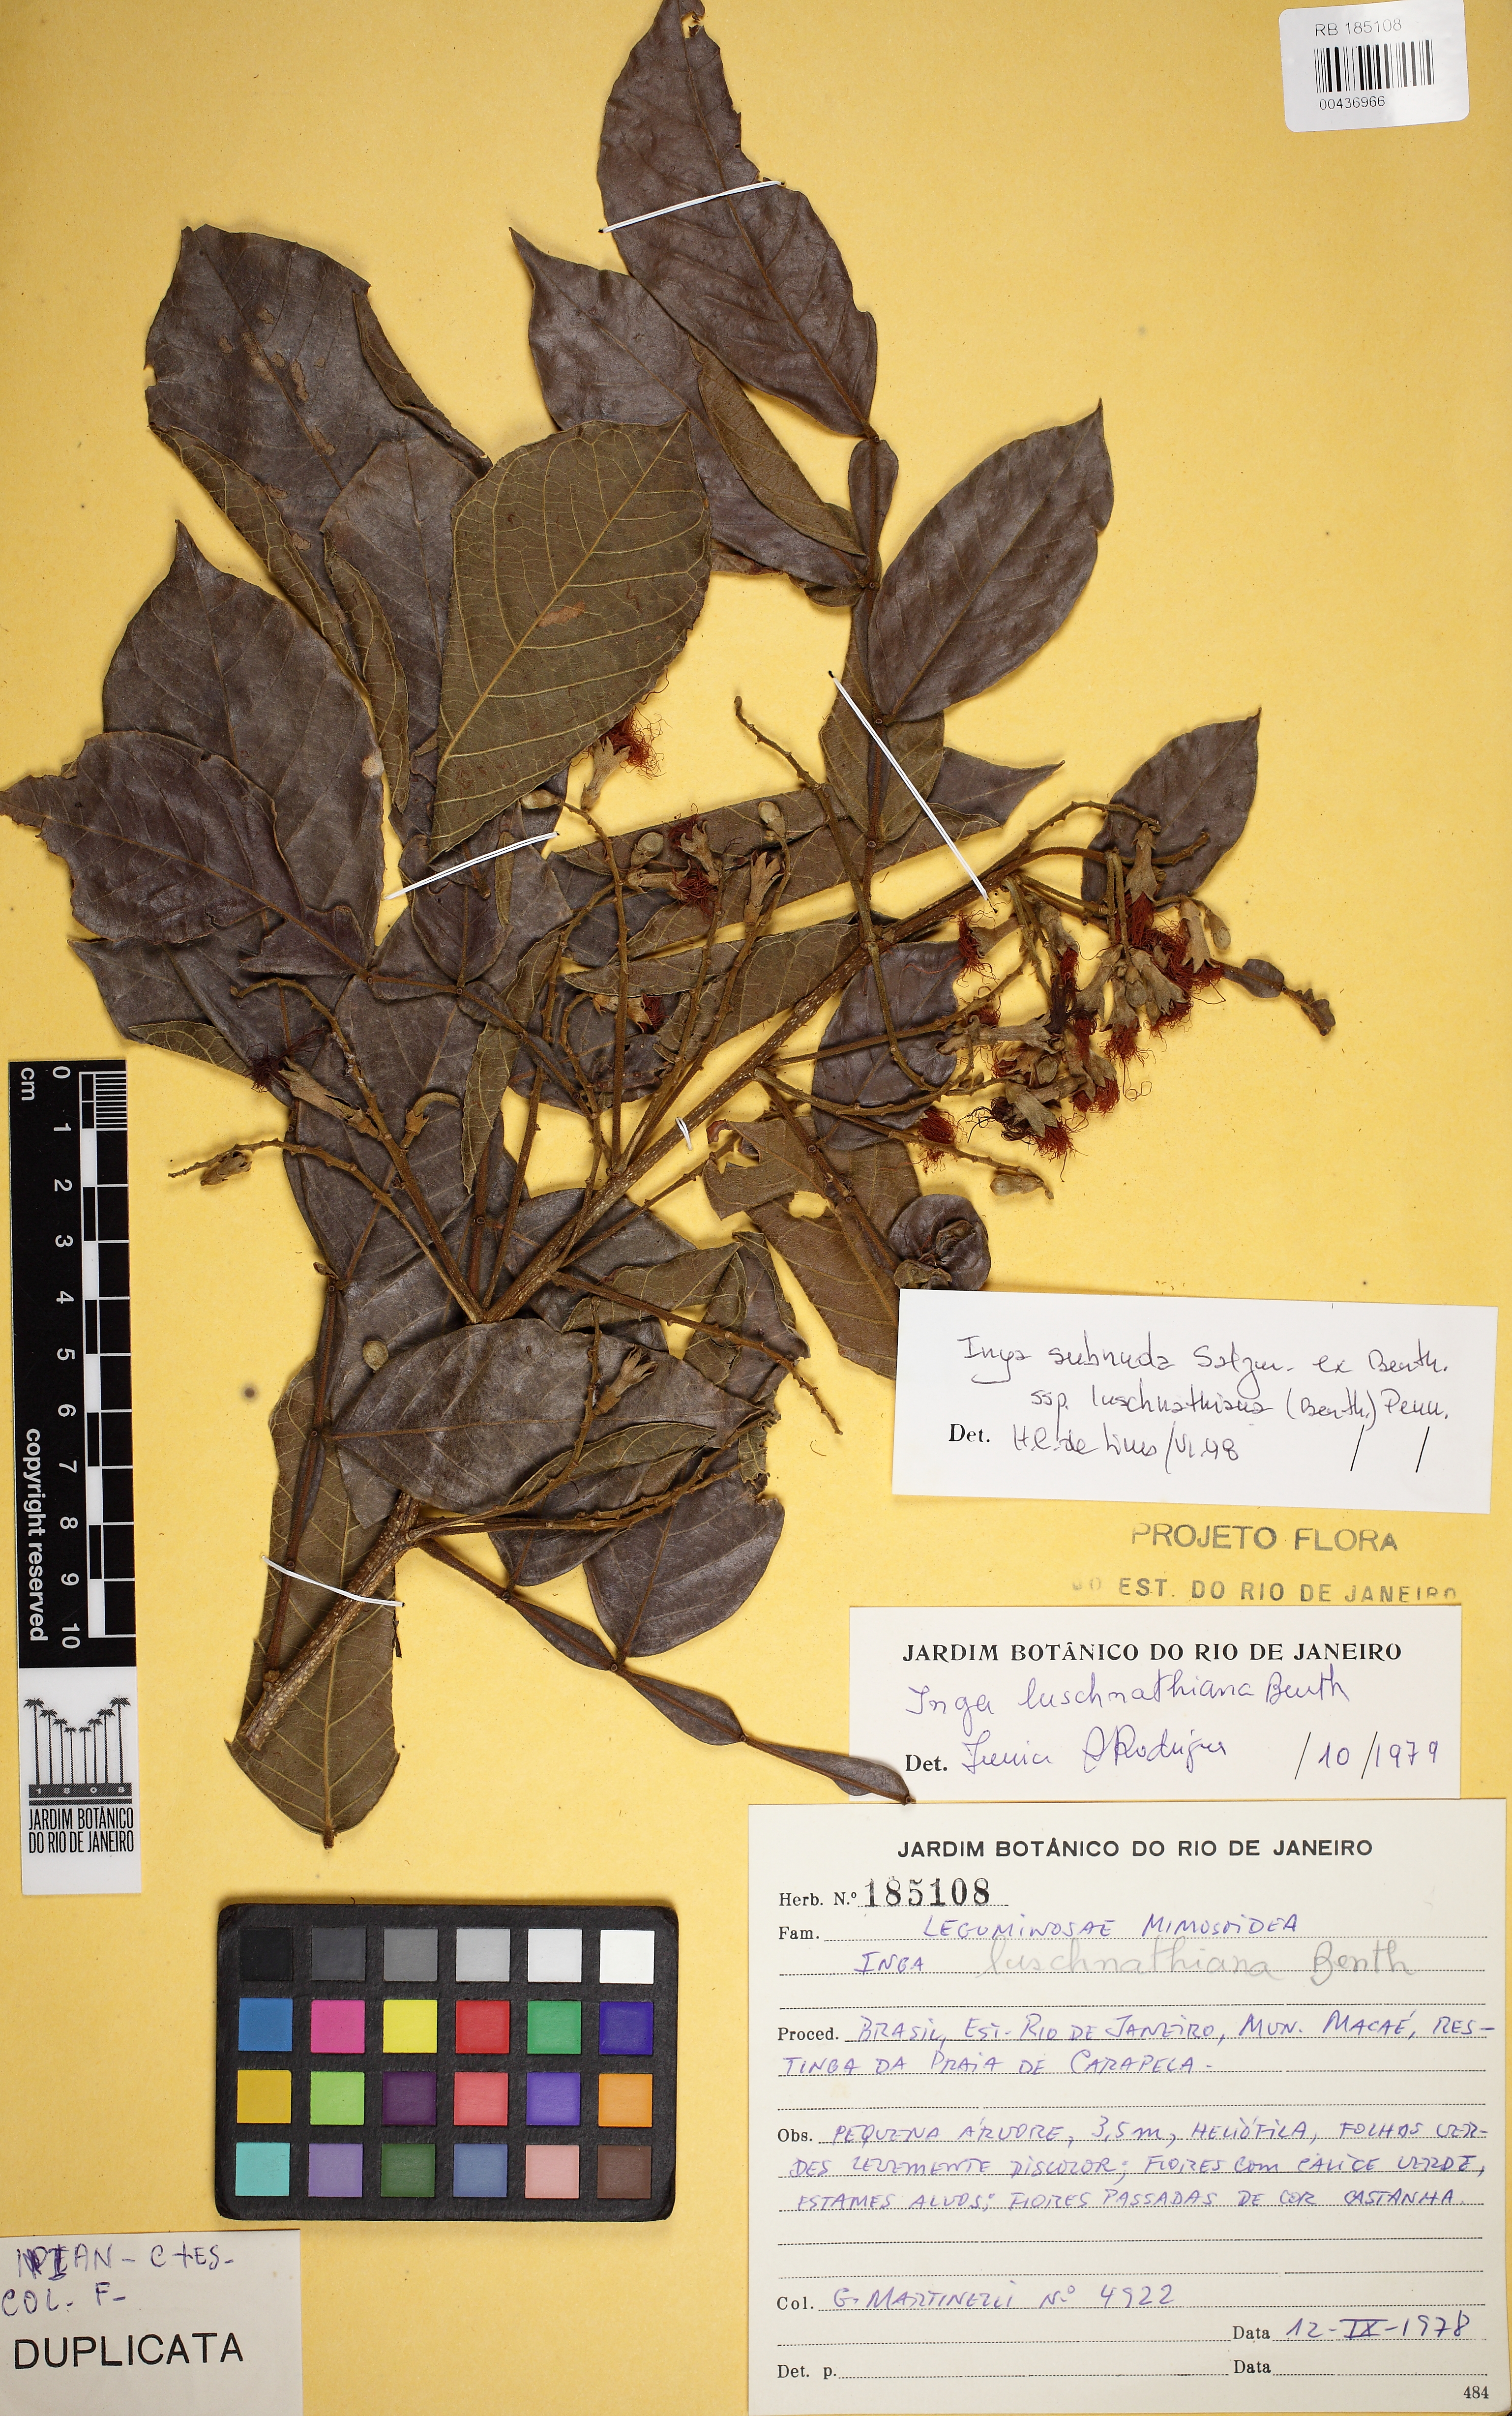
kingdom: Plantae
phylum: Tracheophyta
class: Magnoliopsida
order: Fabales
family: Fabaceae
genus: Inga
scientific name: Inga subnuda
